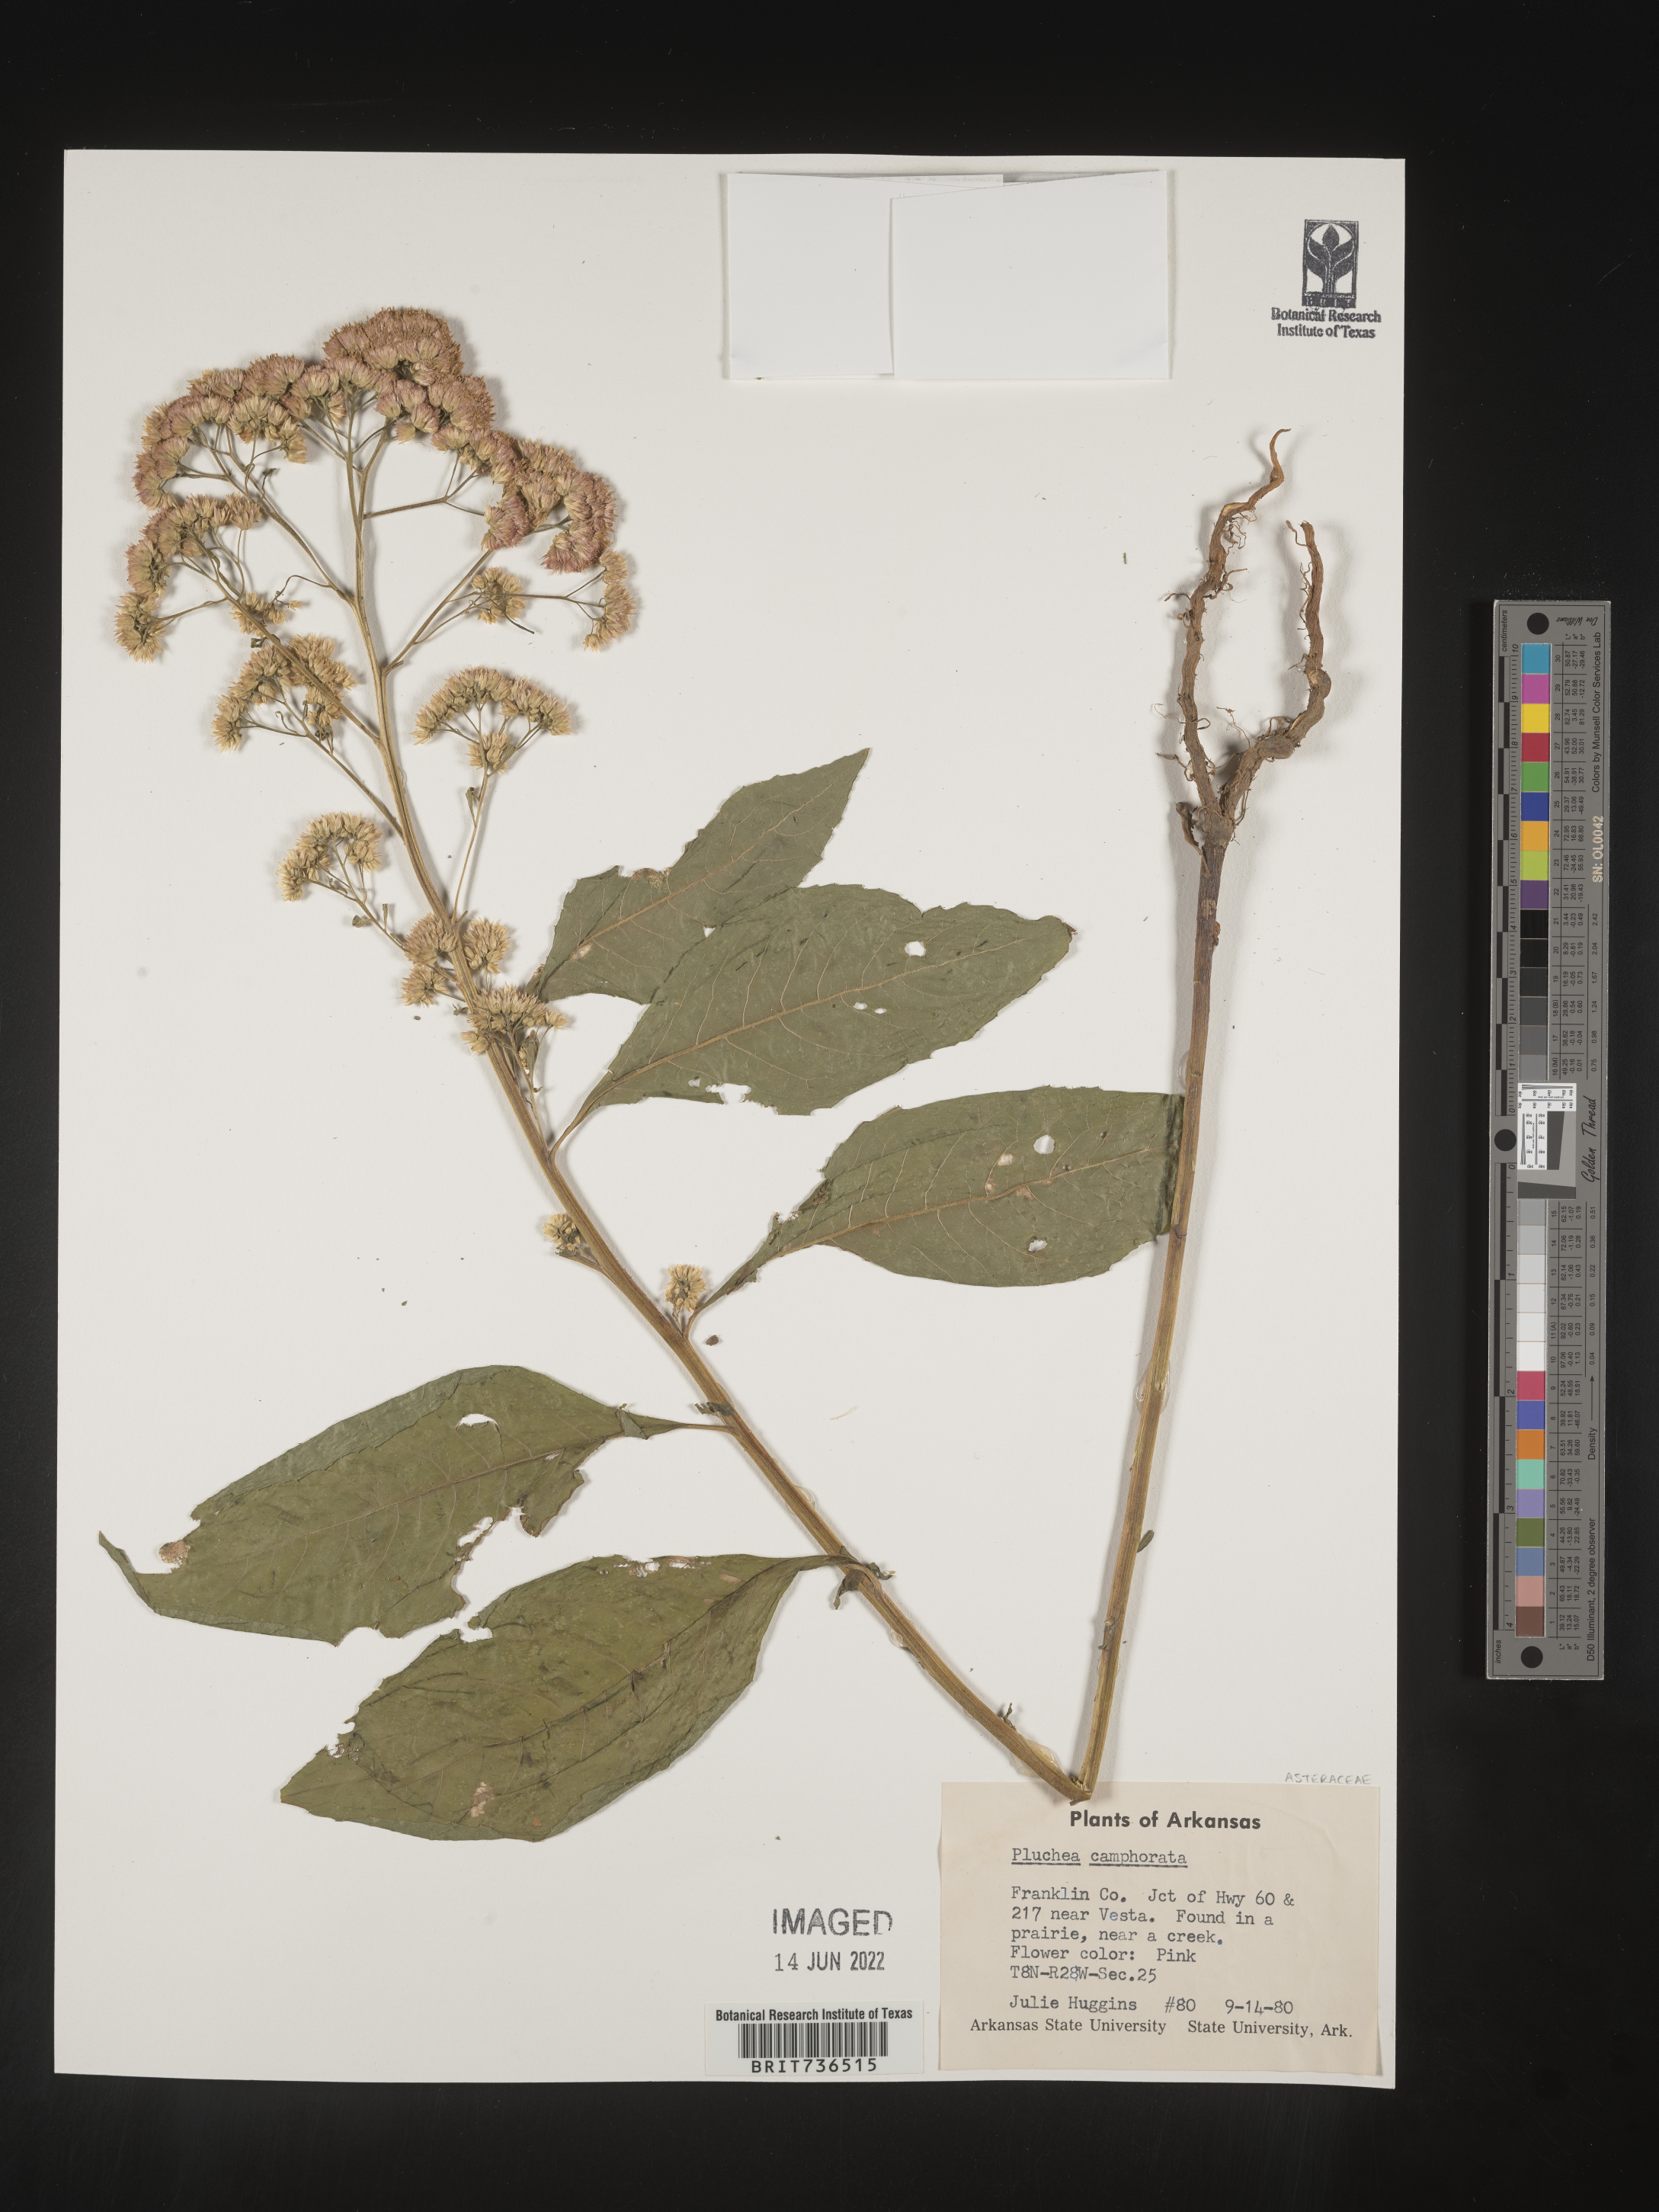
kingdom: Plantae
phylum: Tracheophyta
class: Magnoliopsida
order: Asterales
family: Asteraceae
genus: Pluchea
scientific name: Pluchea camphorata
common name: Camphor pluchea
